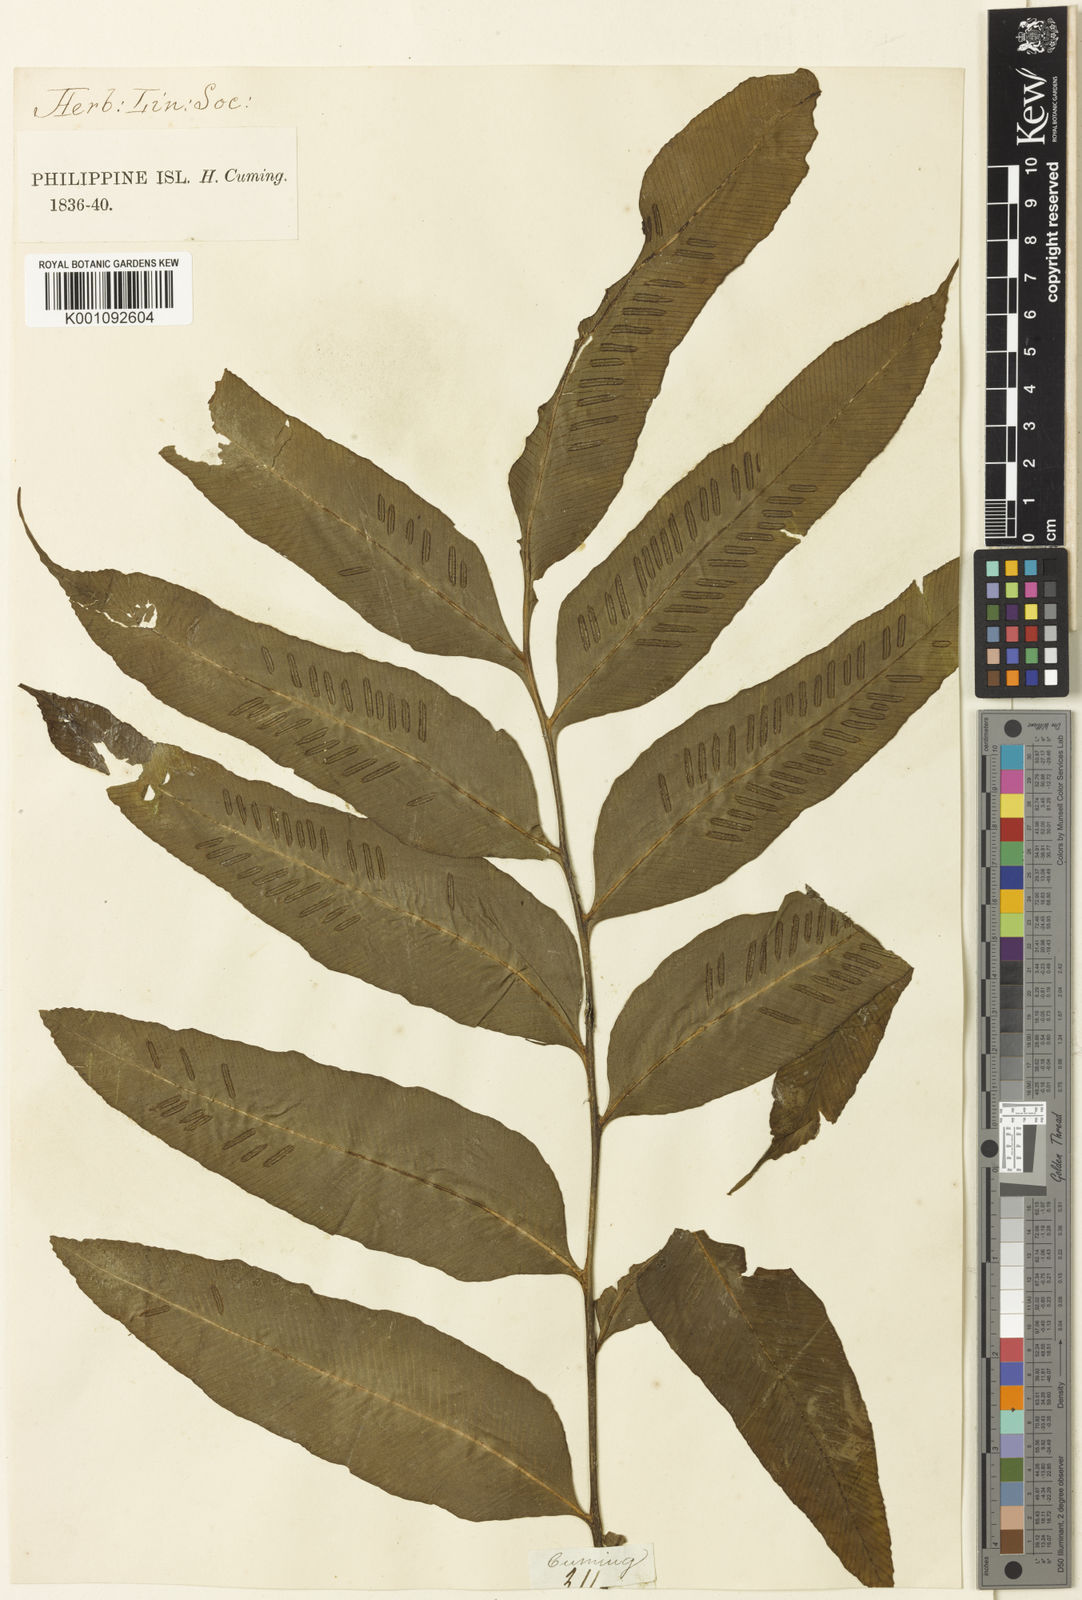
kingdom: Plantae
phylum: Tracheophyta
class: Polypodiopsida
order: Polypodiales
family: Aspleniaceae
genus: Asplenium
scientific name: Asplenium
